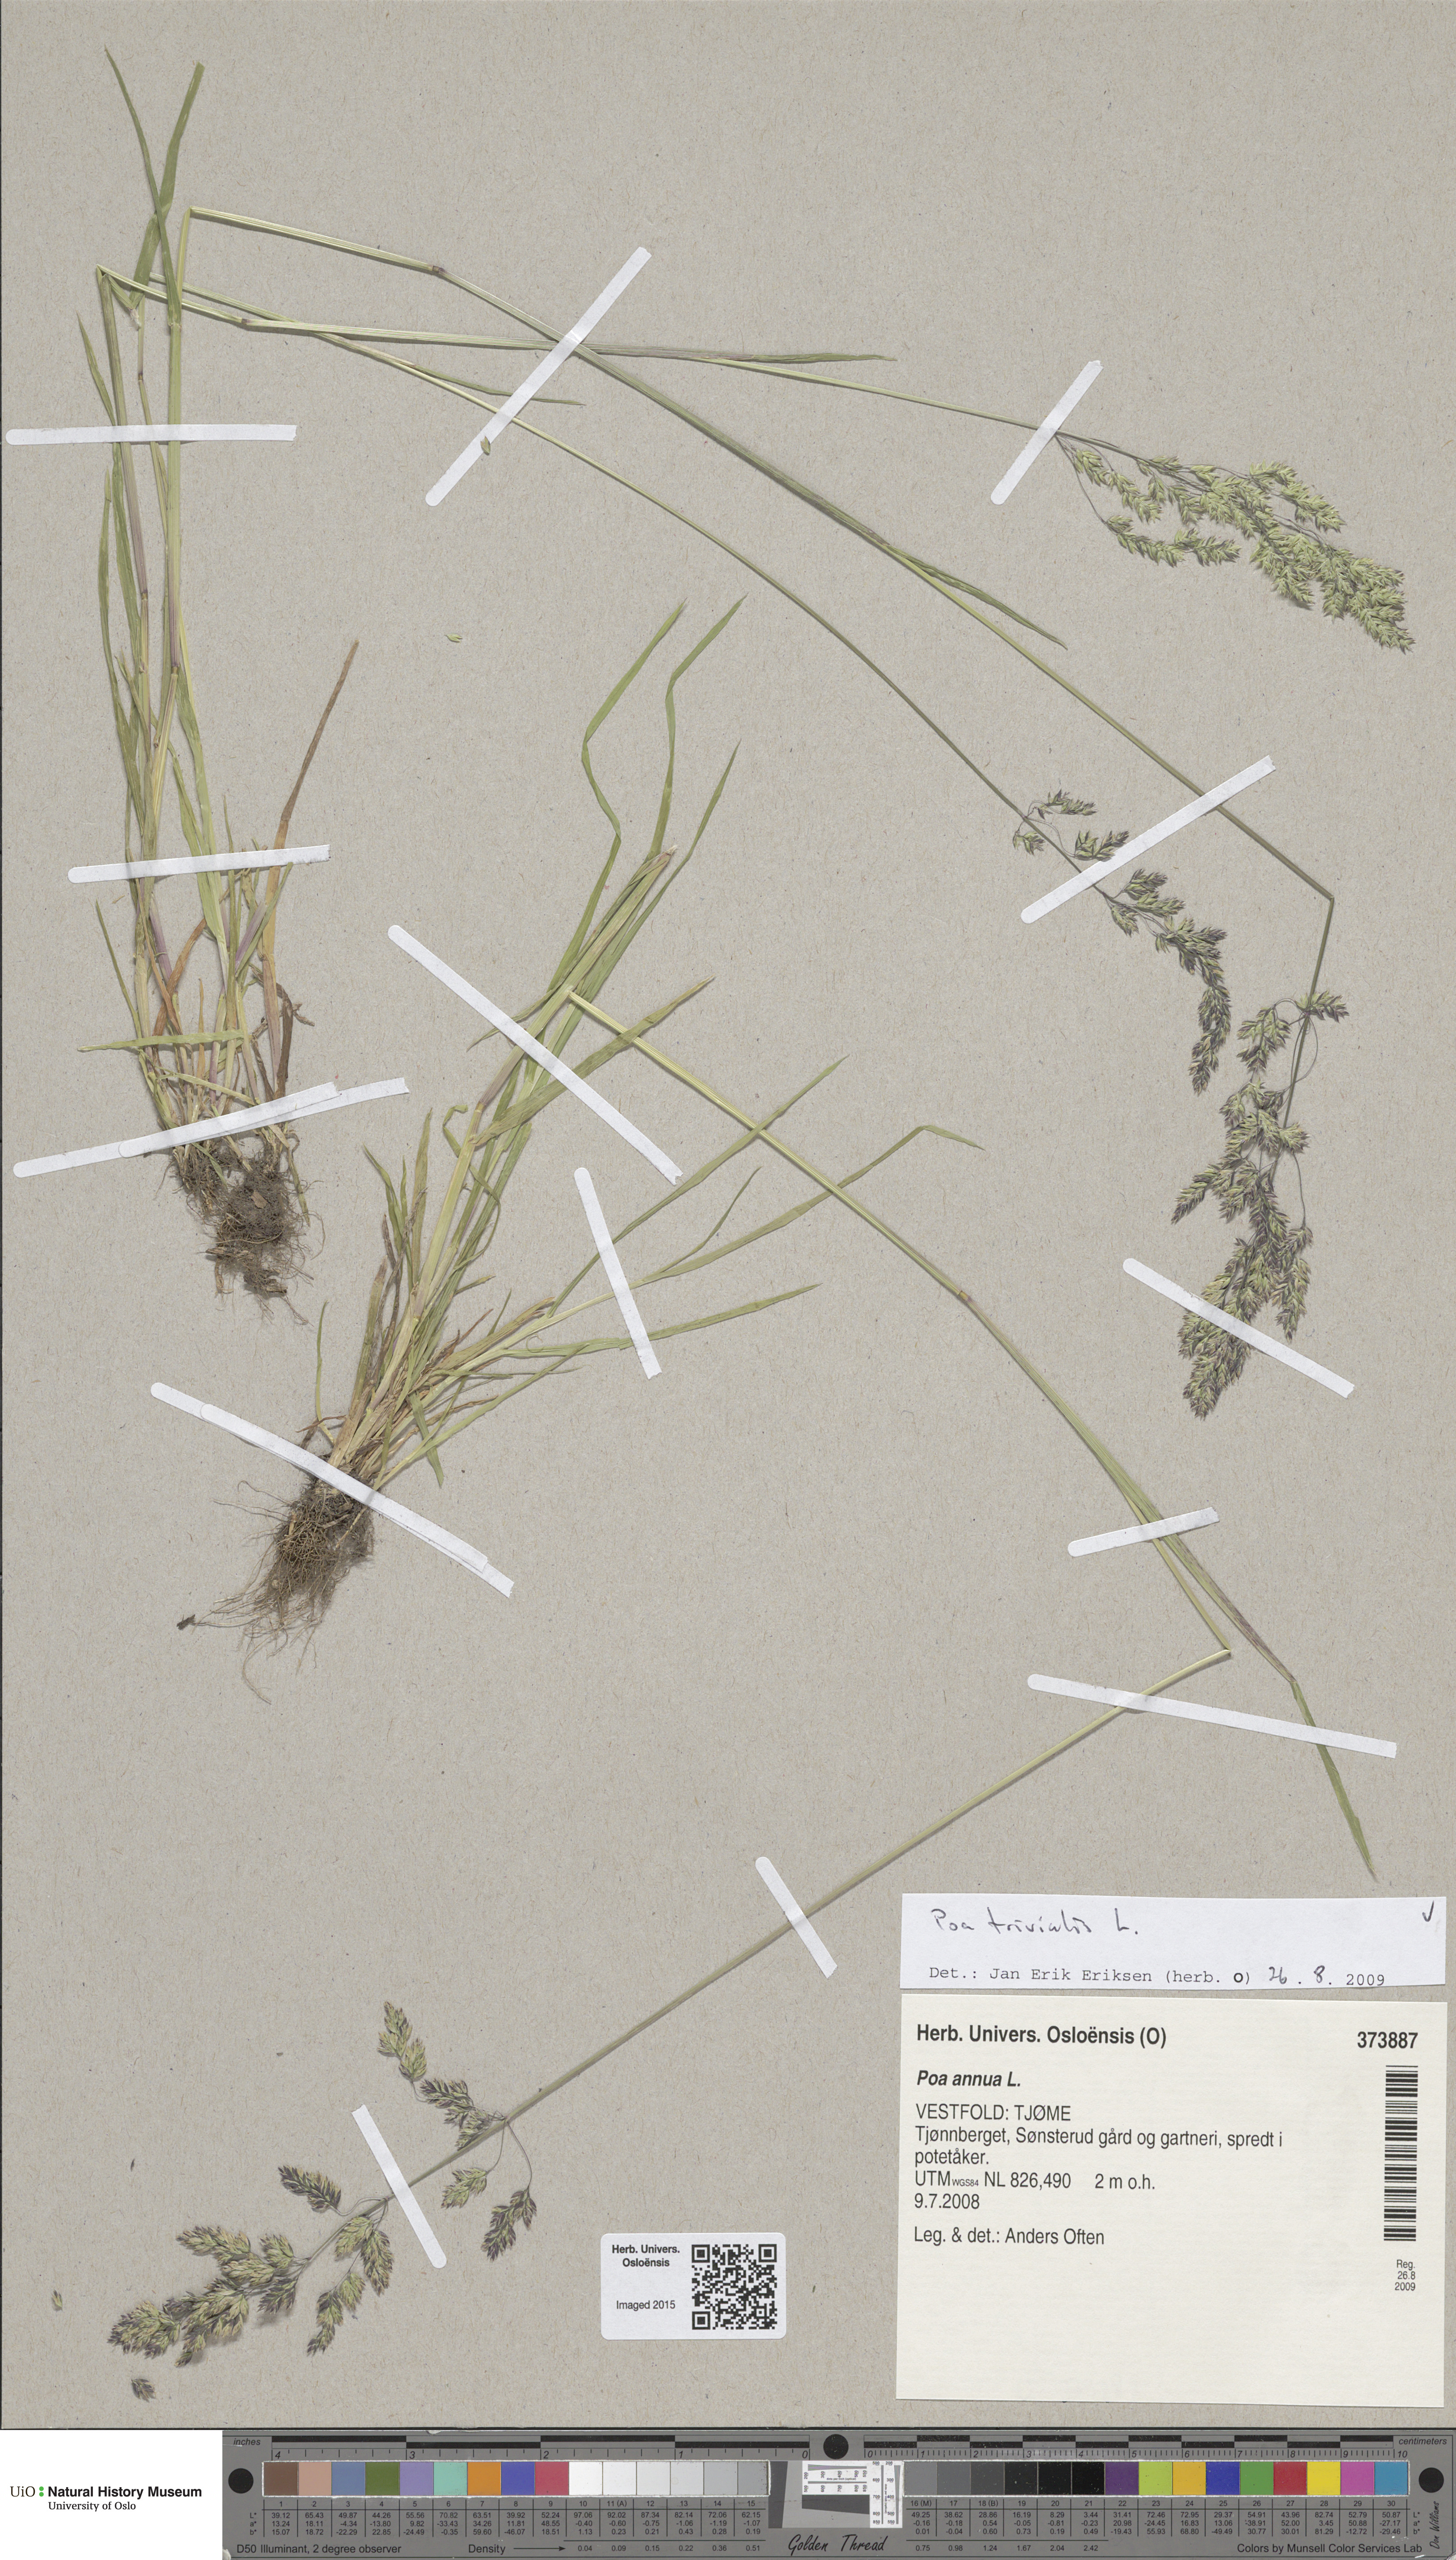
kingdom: Plantae
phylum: Tracheophyta
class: Liliopsida
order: Poales
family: Poaceae
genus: Poa
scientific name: Poa trivialis
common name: Rough bluegrass
